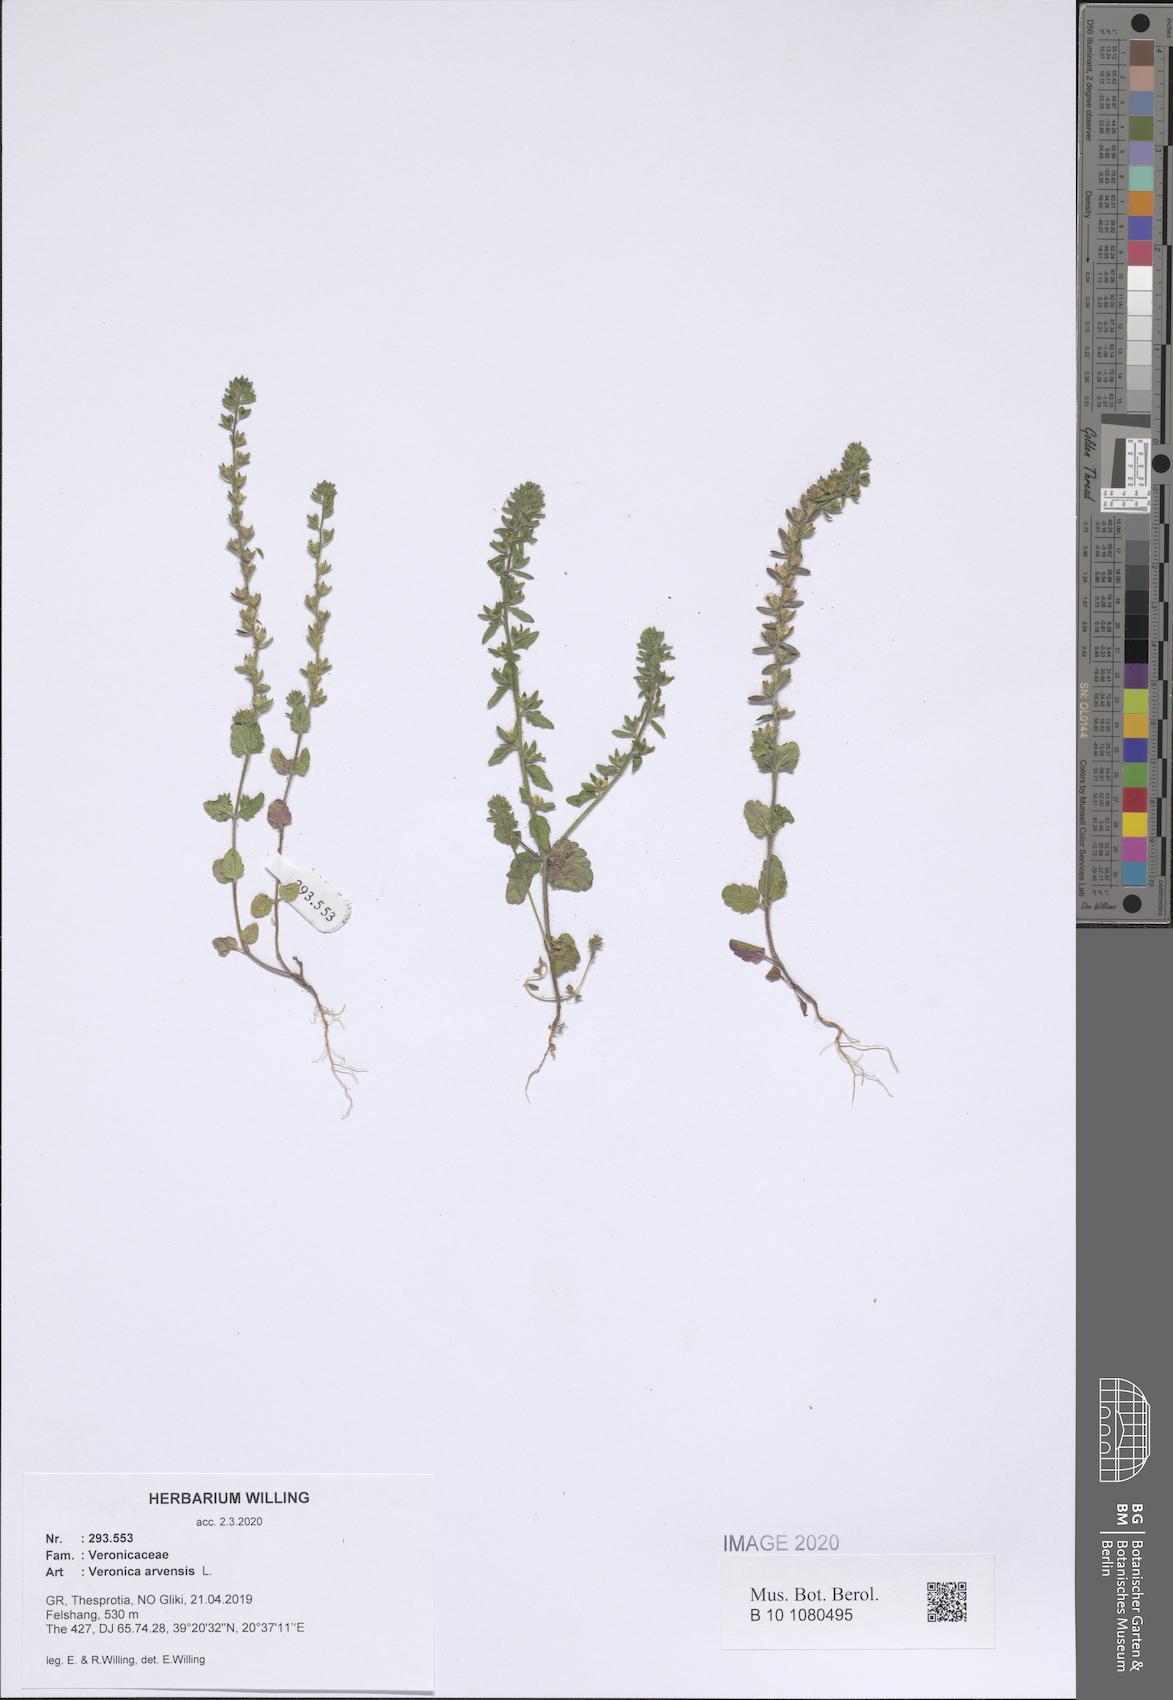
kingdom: Plantae
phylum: Tracheophyta
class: Magnoliopsida
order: Lamiales
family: Plantaginaceae
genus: Veronica
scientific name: Veronica arvensis
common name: Corn speedwell
